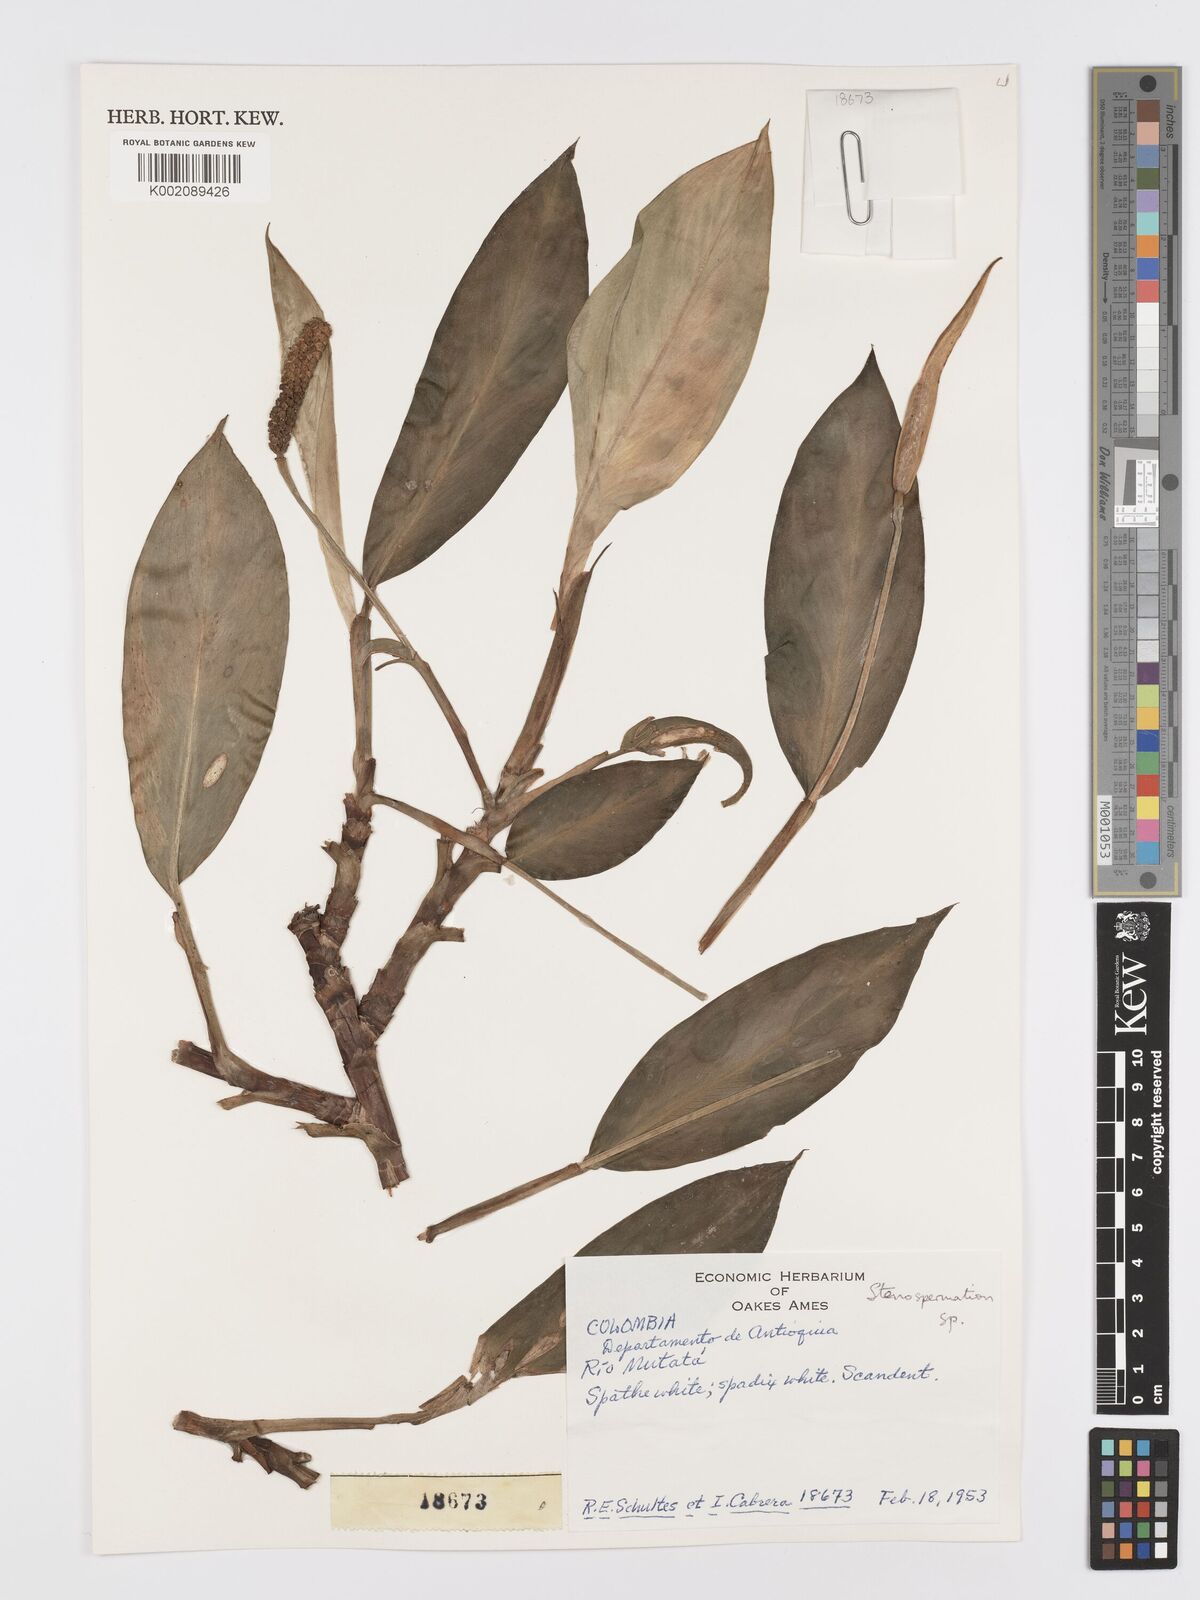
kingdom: Plantae
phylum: Tracheophyta
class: Liliopsida
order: Alismatales
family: Araceae
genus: Stenospermation
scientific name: Stenospermation angosturense
